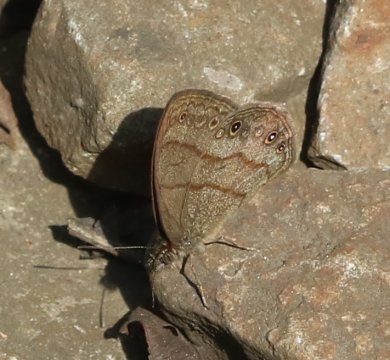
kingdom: Animalia
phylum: Arthropoda
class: Insecta
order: Lepidoptera
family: Nymphalidae
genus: Hermeuptychia
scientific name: Hermeuptychia hermes
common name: Carolina Satyr
